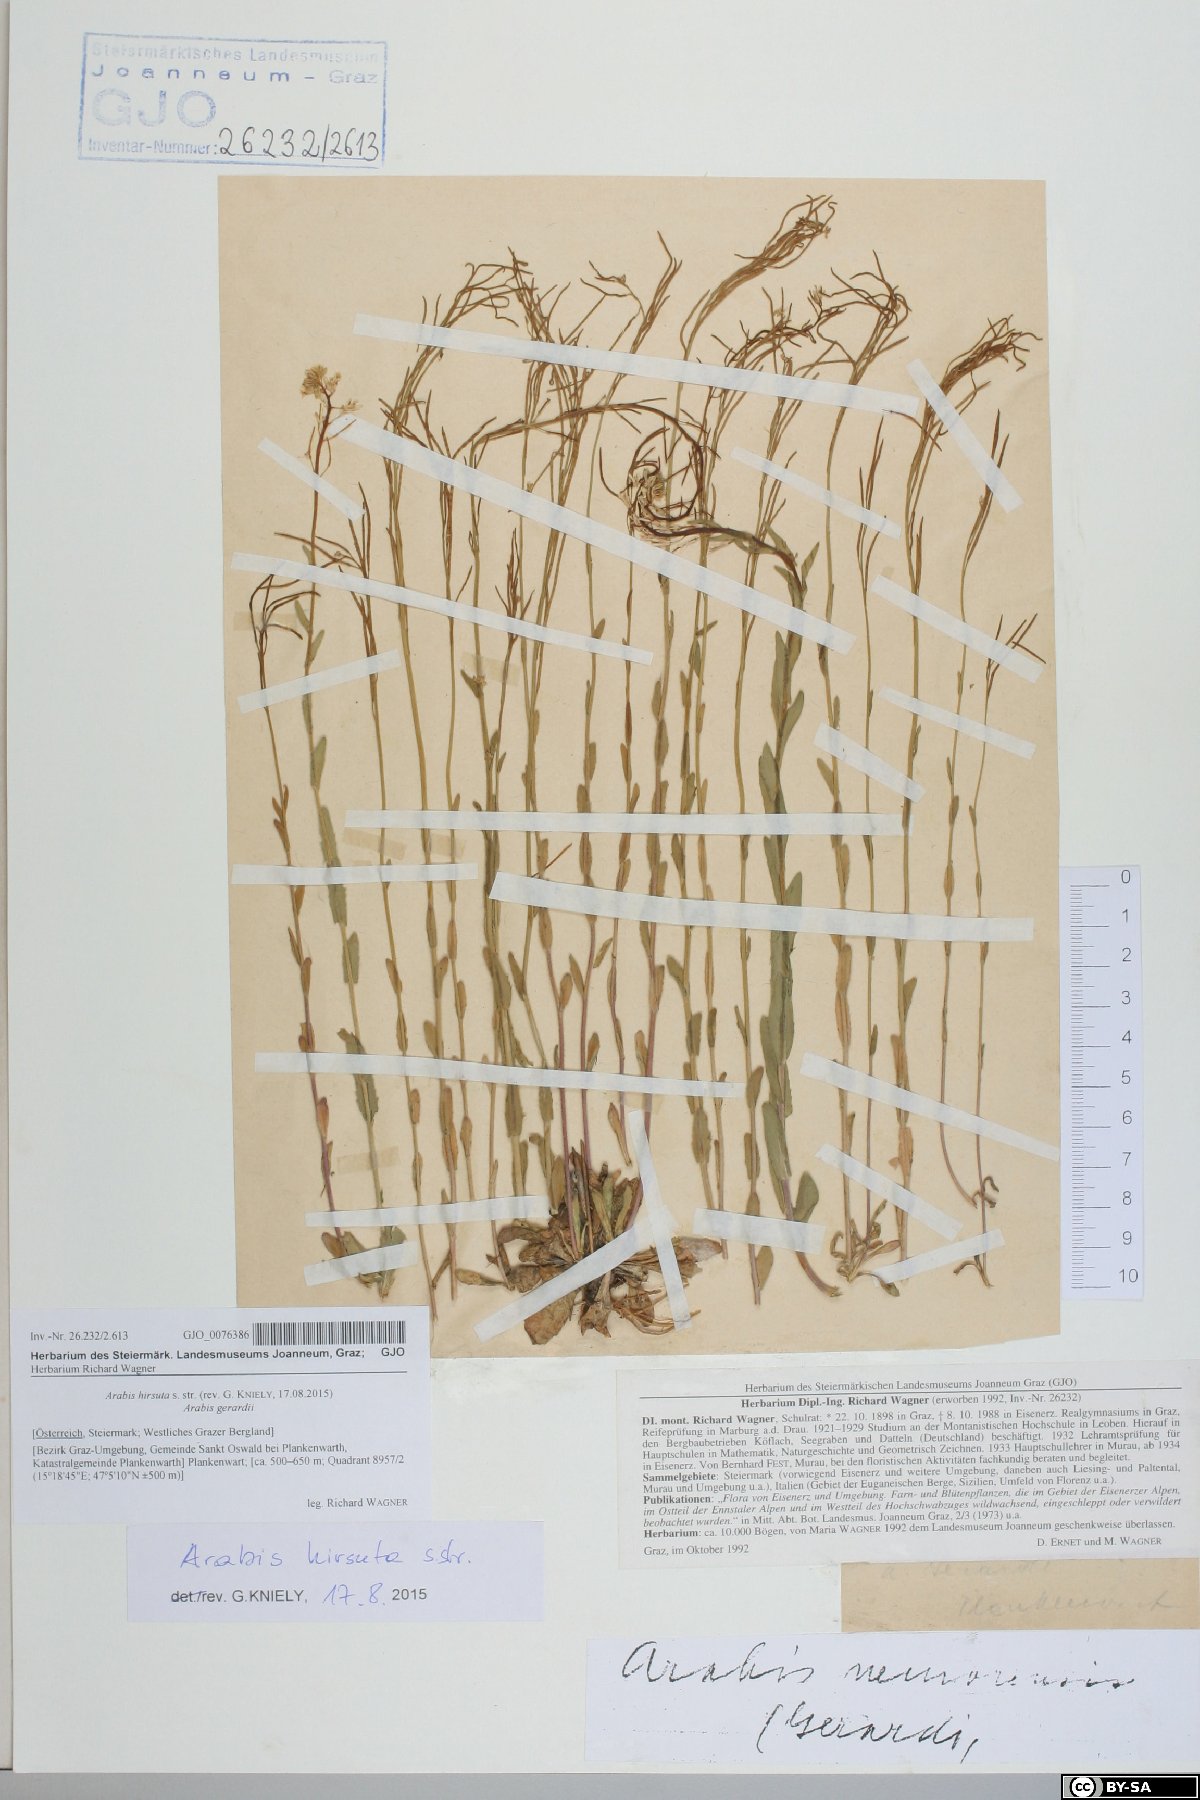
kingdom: Plantae
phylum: Tracheophyta
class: Magnoliopsida
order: Brassicales
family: Brassicaceae
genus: Arabis
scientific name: Arabis hirsuta
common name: Hairy rock-cress
